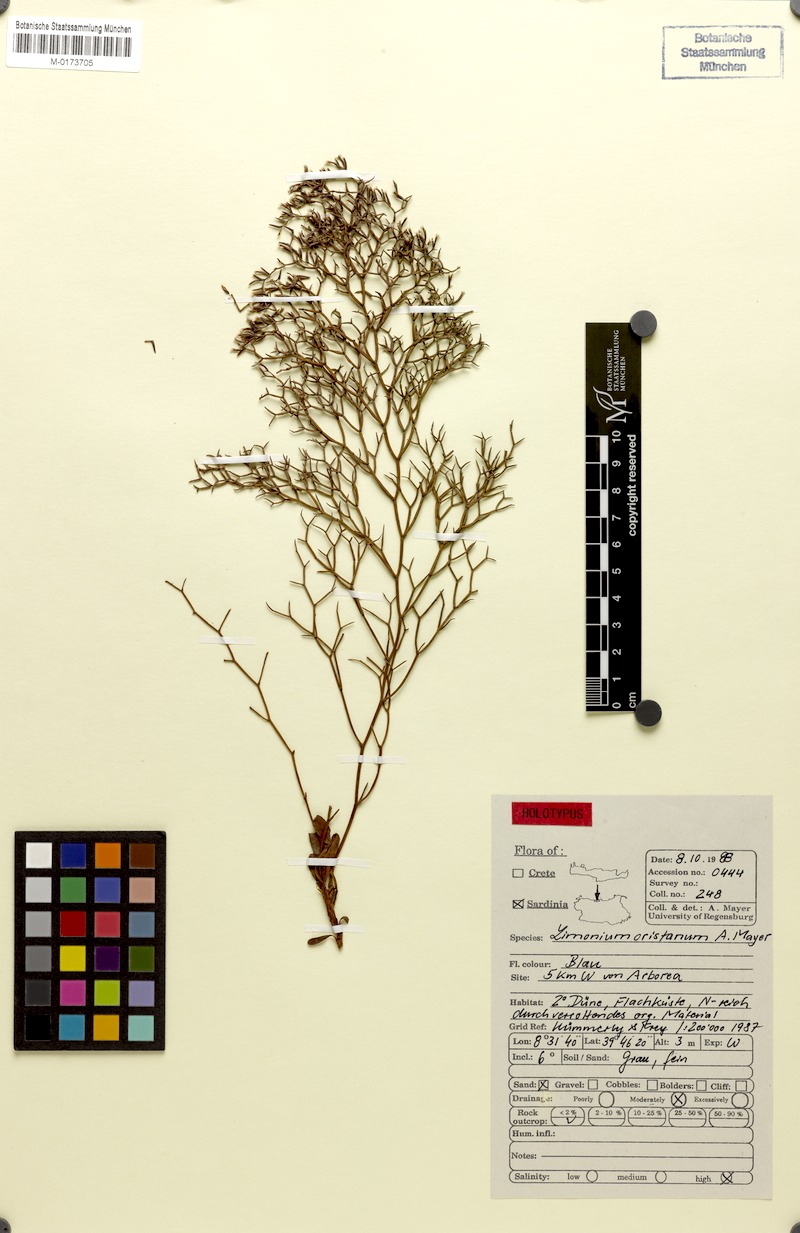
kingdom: Plantae
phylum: Tracheophyta
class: Magnoliopsida
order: Caryophyllales
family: Plumbaginaceae
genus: Limonium
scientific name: Limonium oristanum
